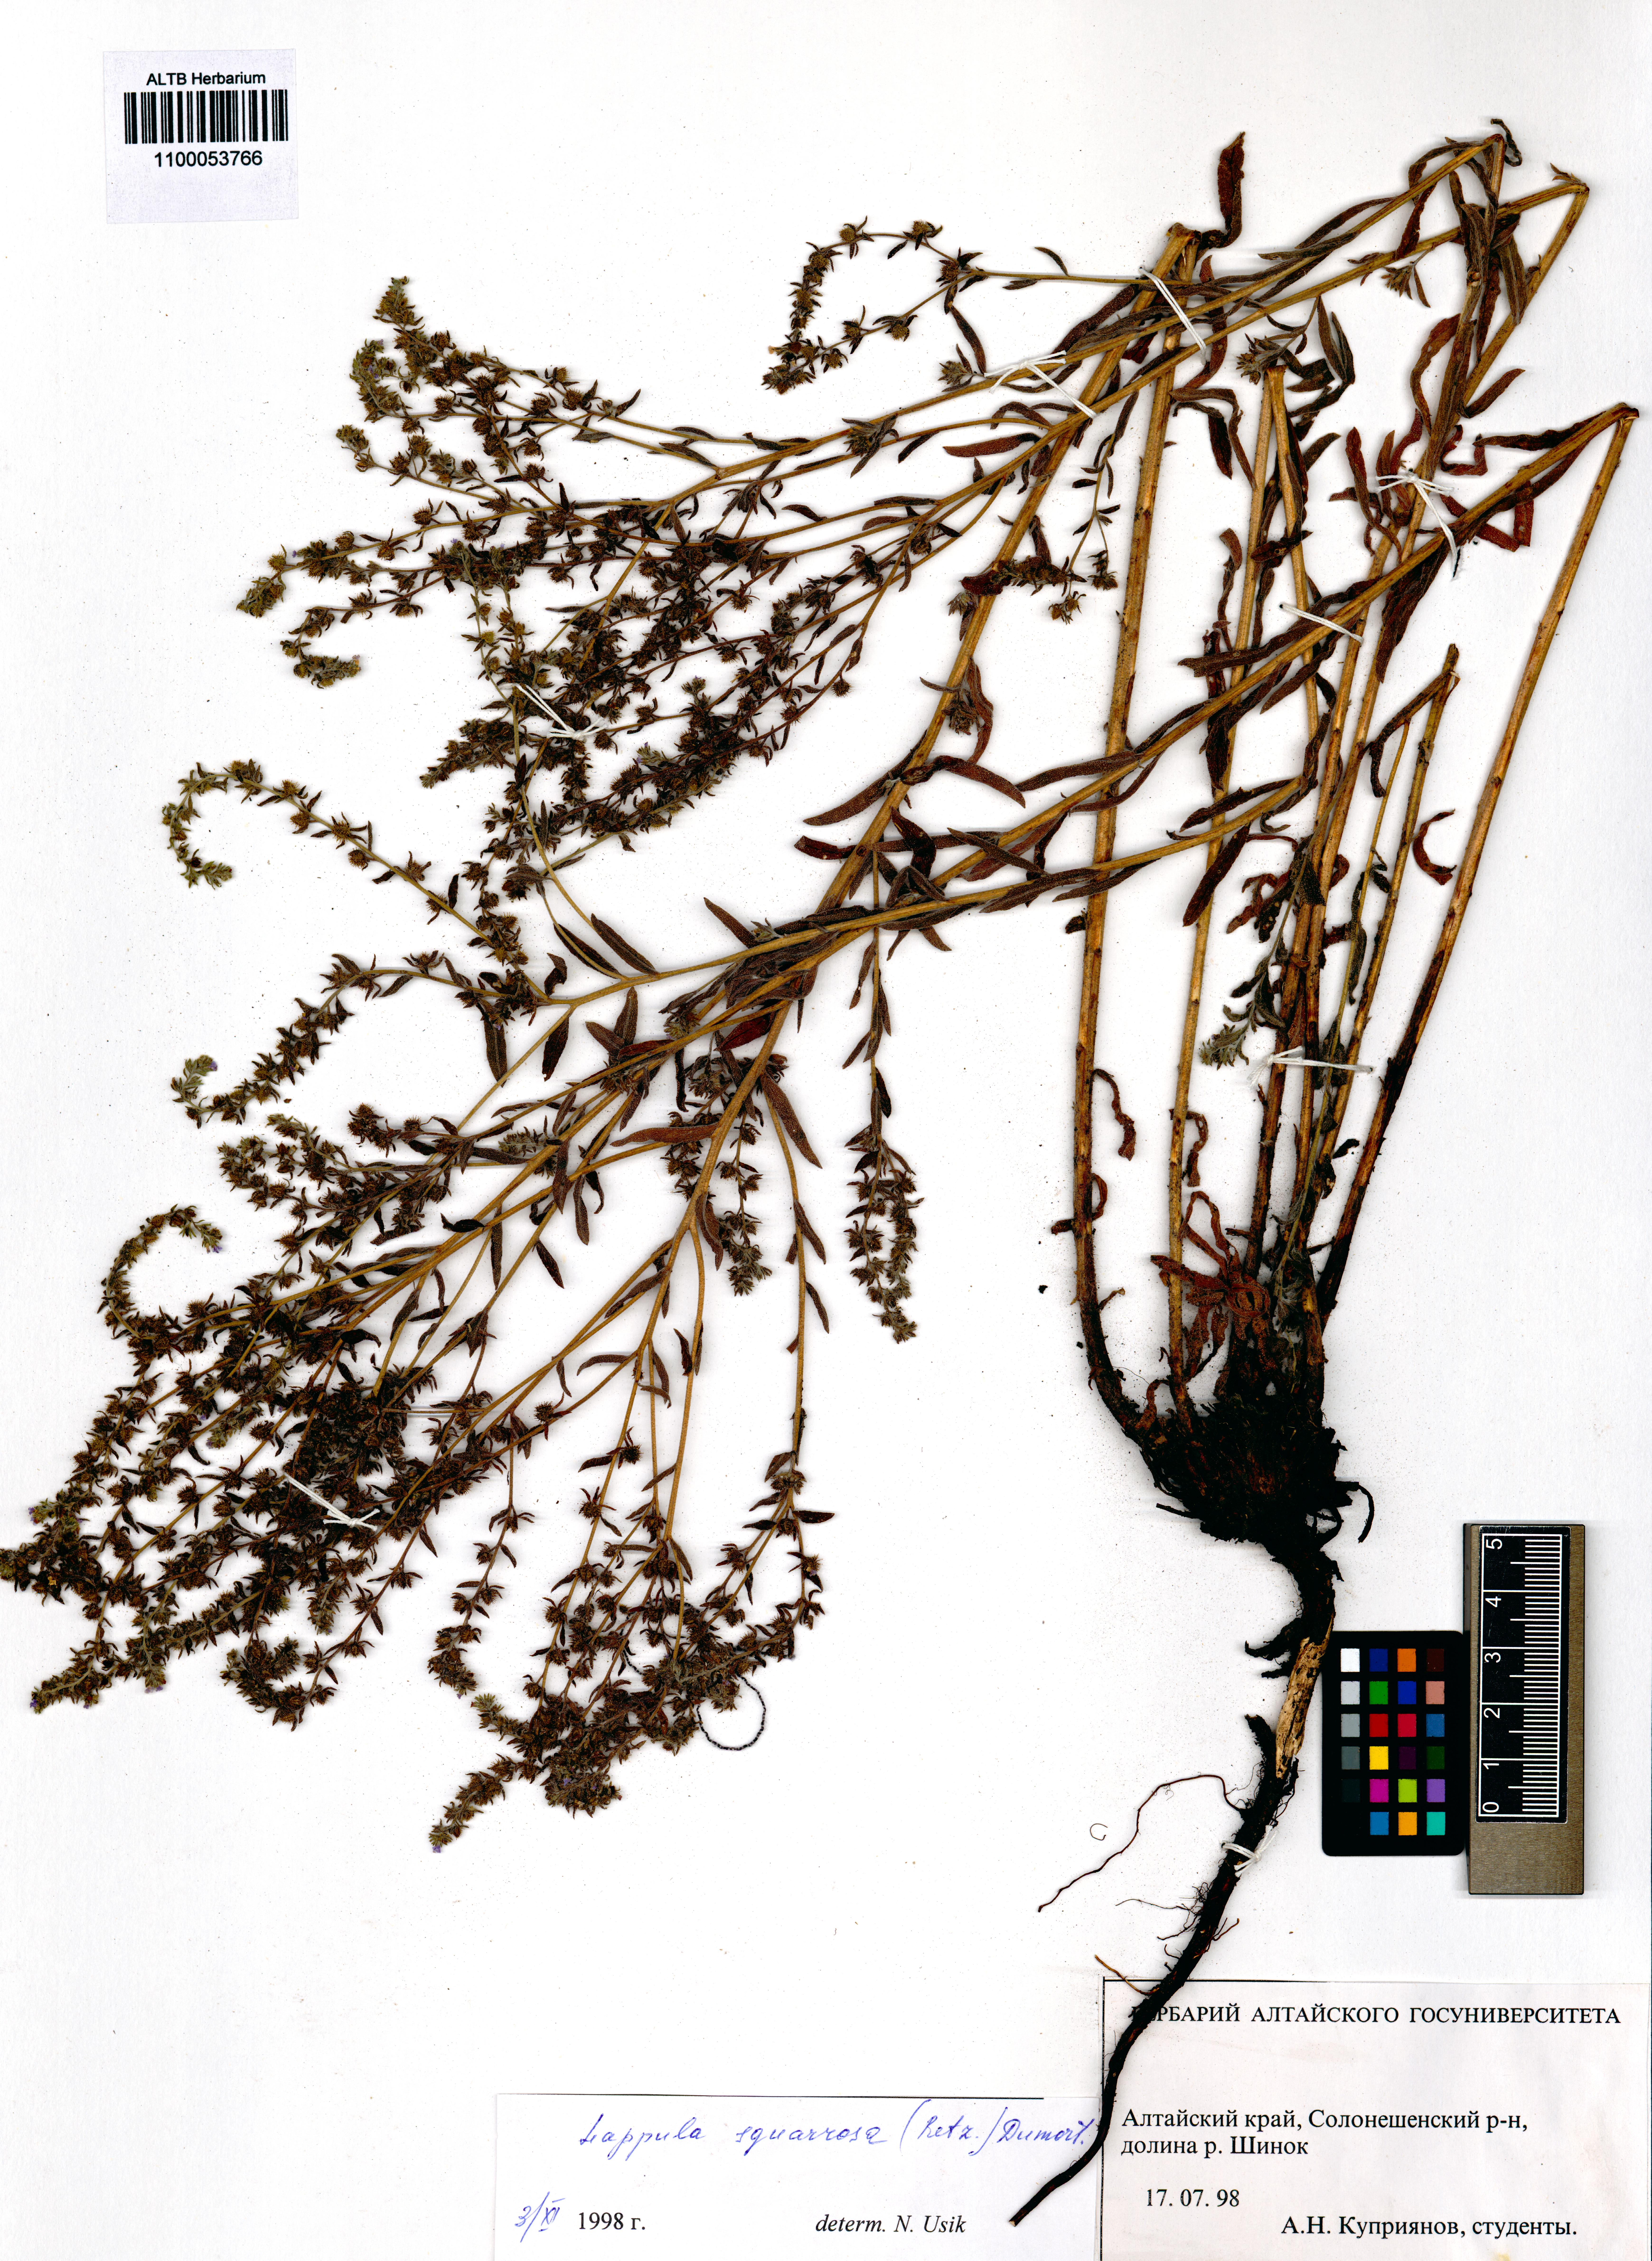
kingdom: Plantae
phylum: Tracheophyta
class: Magnoliopsida
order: Boraginales
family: Boraginaceae
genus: Lappula
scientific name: Lappula squarrosa
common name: European stickseed
